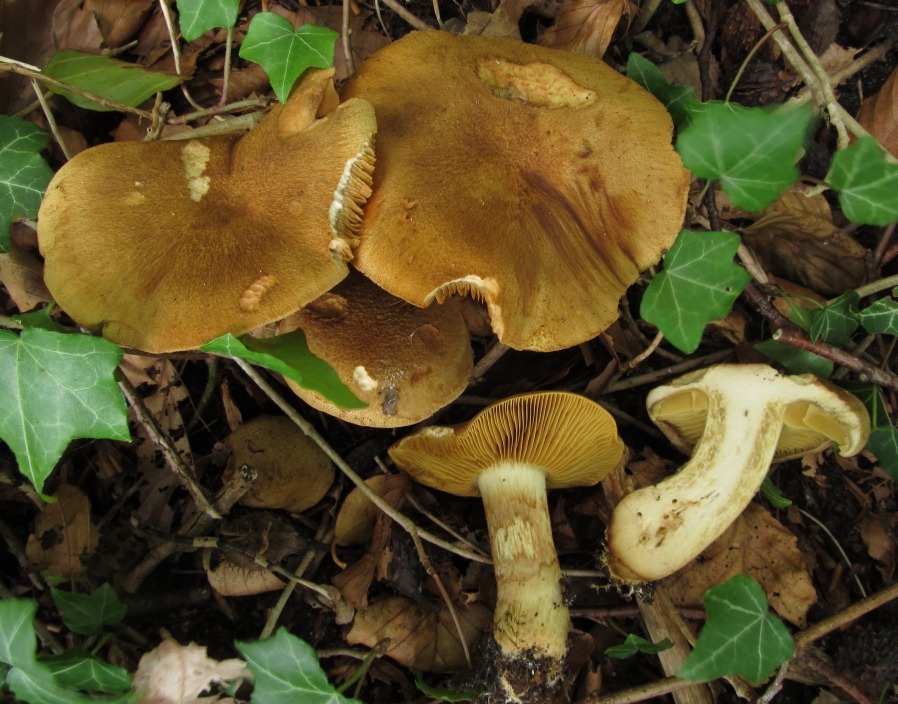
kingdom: Fungi
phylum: Basidiomycota
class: Agaricomycetes
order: Agaricales
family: Cortinariaceae
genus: Cortinarius
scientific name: Cortinarius leproleptopus
